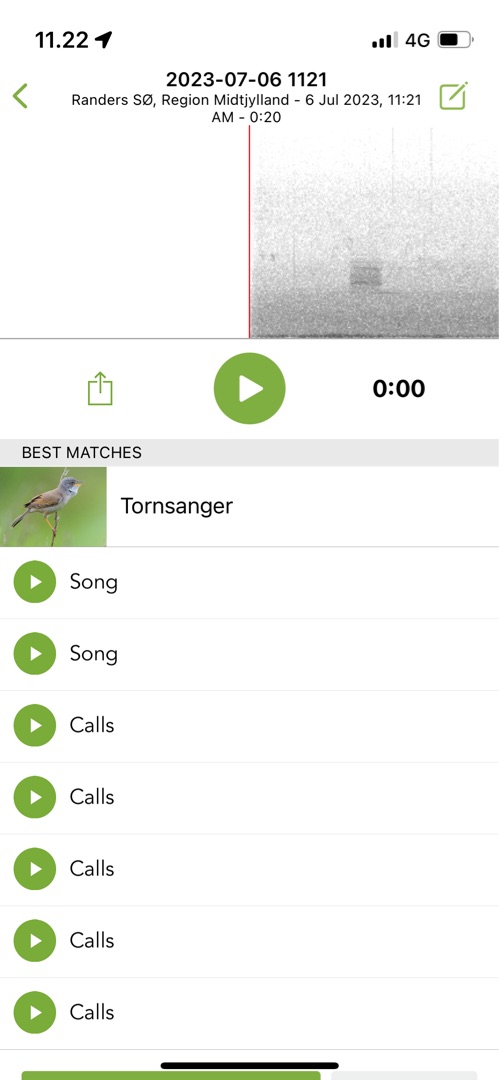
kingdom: Animalia
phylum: Chordata
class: Aves
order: Passeriformes
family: Sylviidae
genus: Sylvia
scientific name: Sylvia communis
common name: Tornsanger
